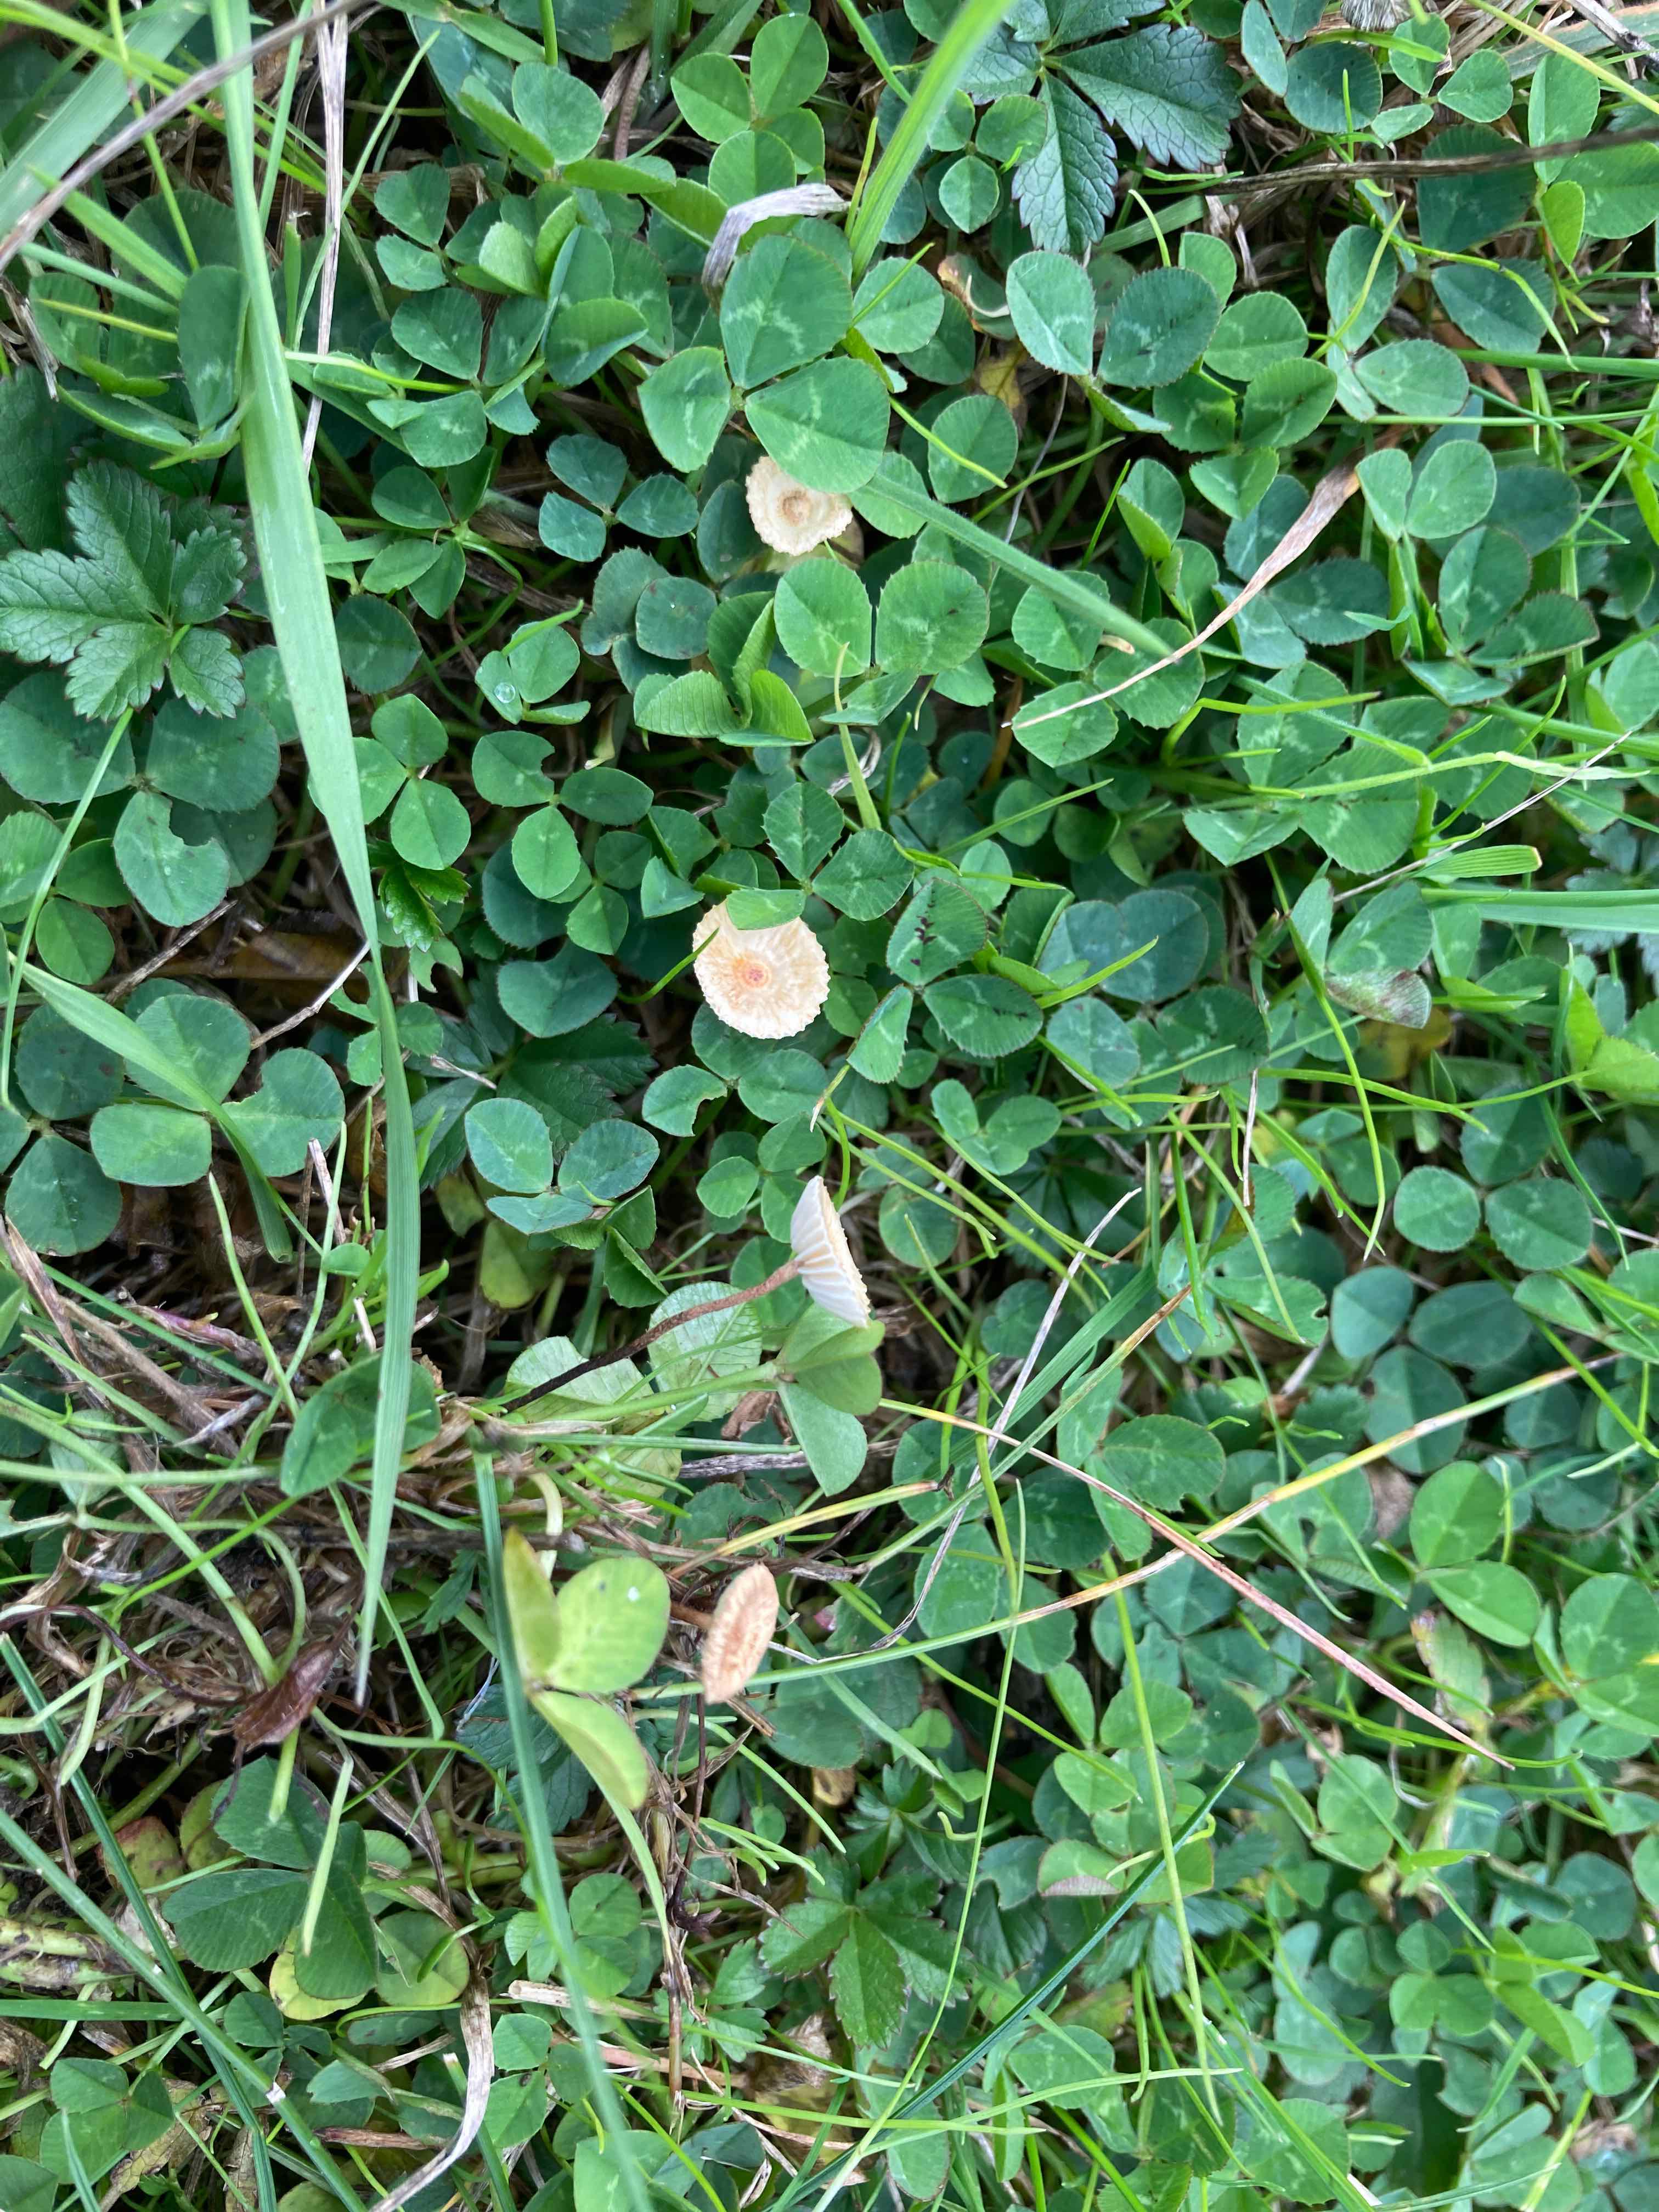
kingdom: Fungi
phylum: Basidiomycota
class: Agaricomycetes
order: Agaricales
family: Marasmiaceae
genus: Crinipellis
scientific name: Crinipellis scabella
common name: børstefod
